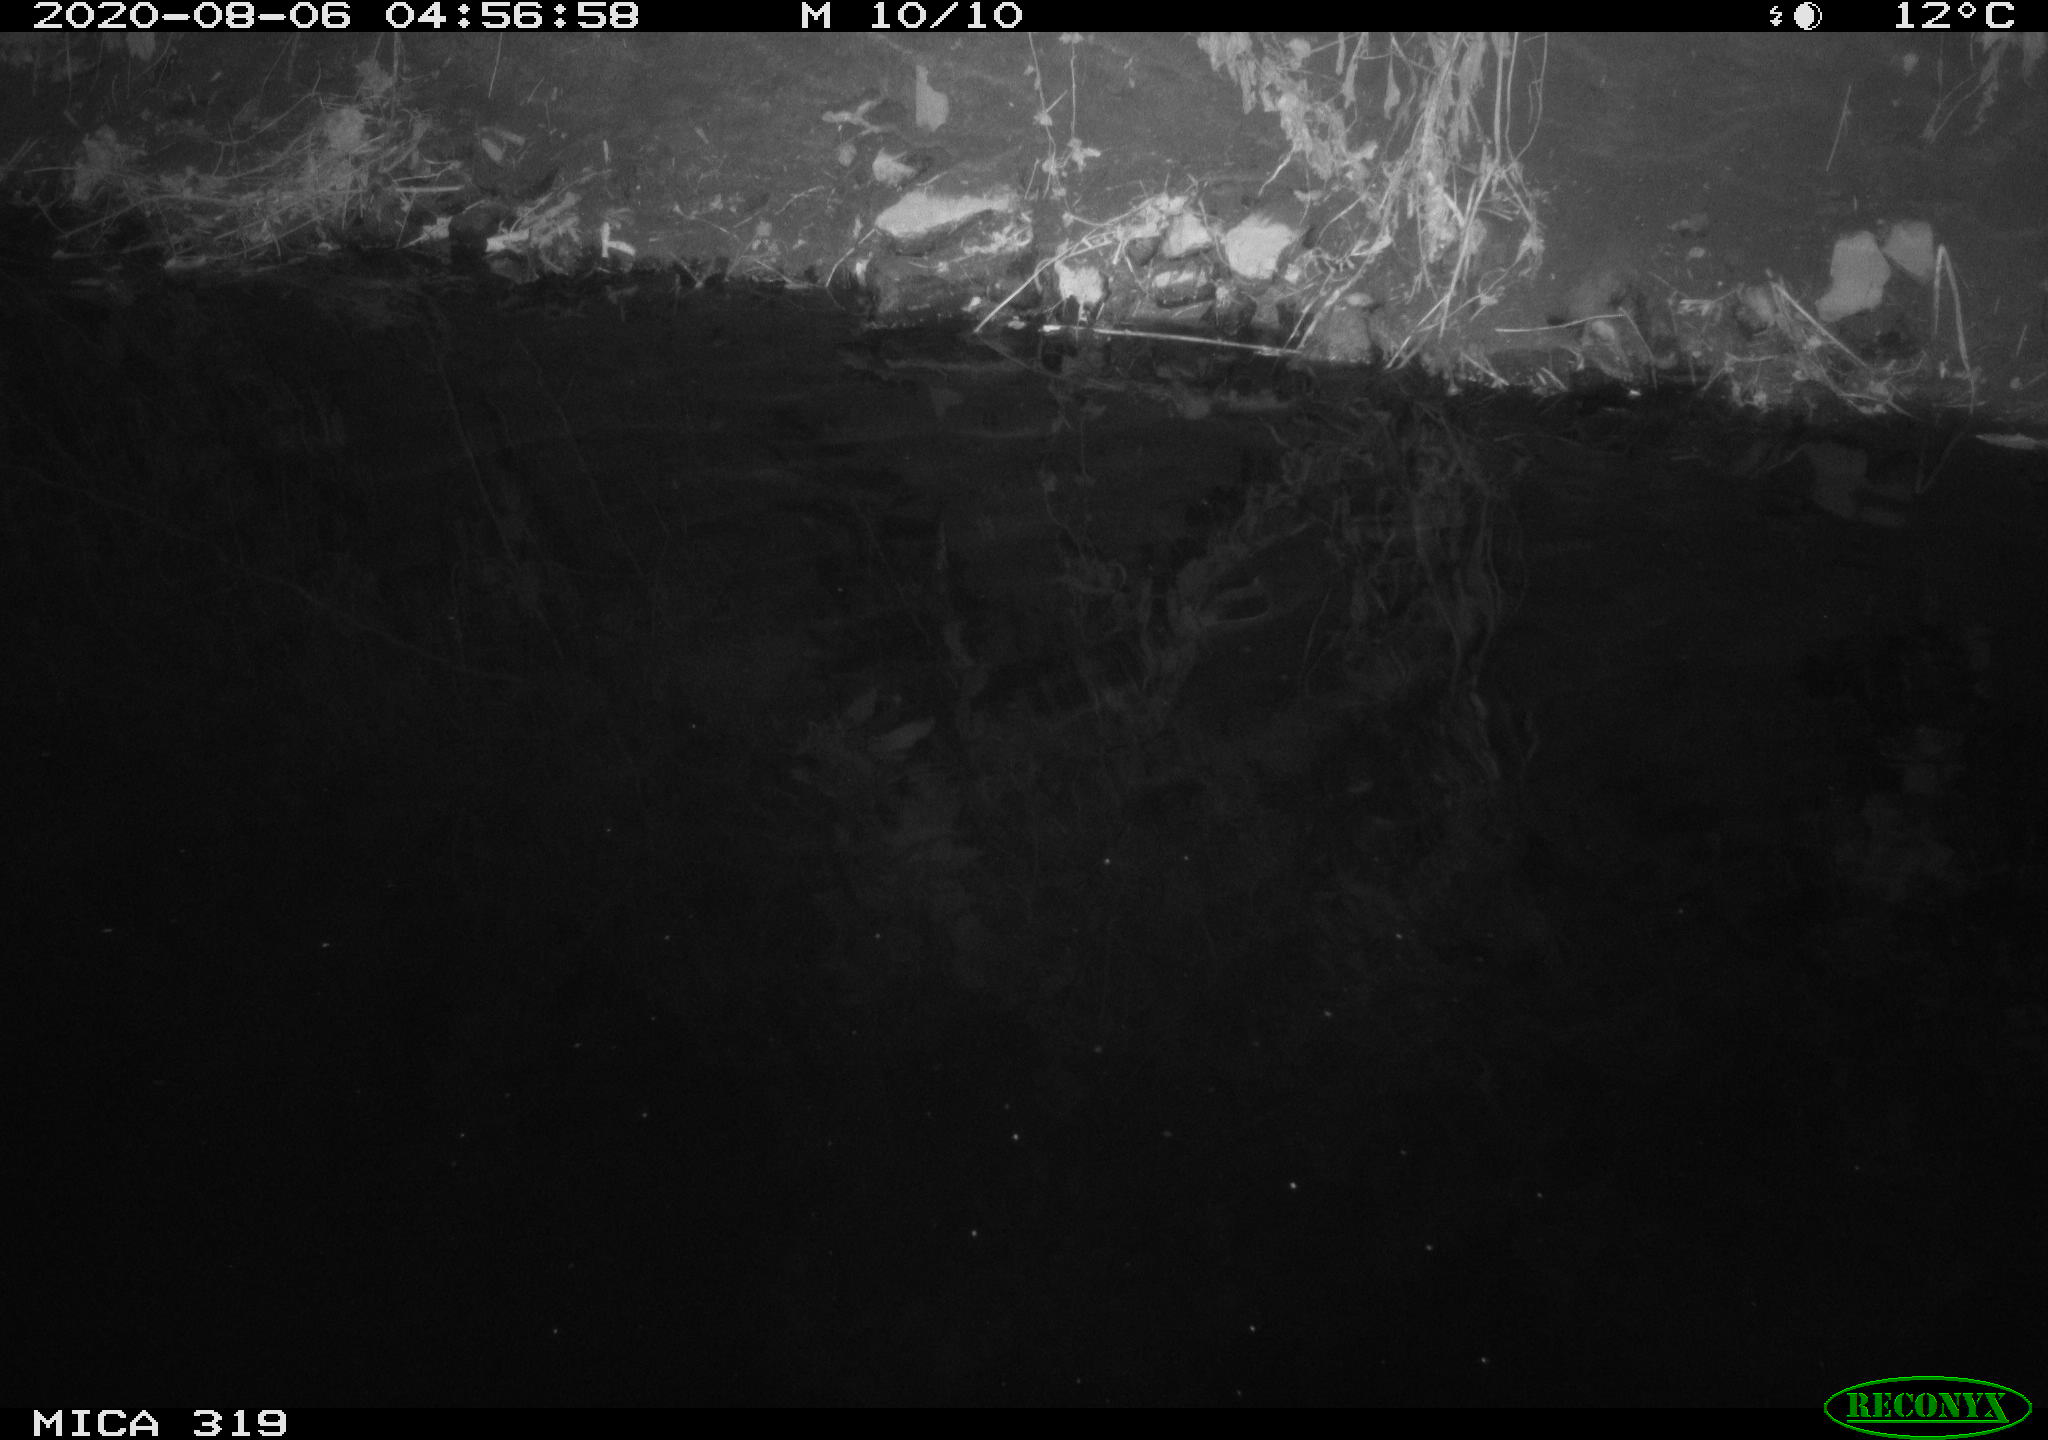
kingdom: Animalia
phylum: Chordata
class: Aves
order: Anseriformes
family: Anatidae
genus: Anas
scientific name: Anas platyrhynchos
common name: Mallard
